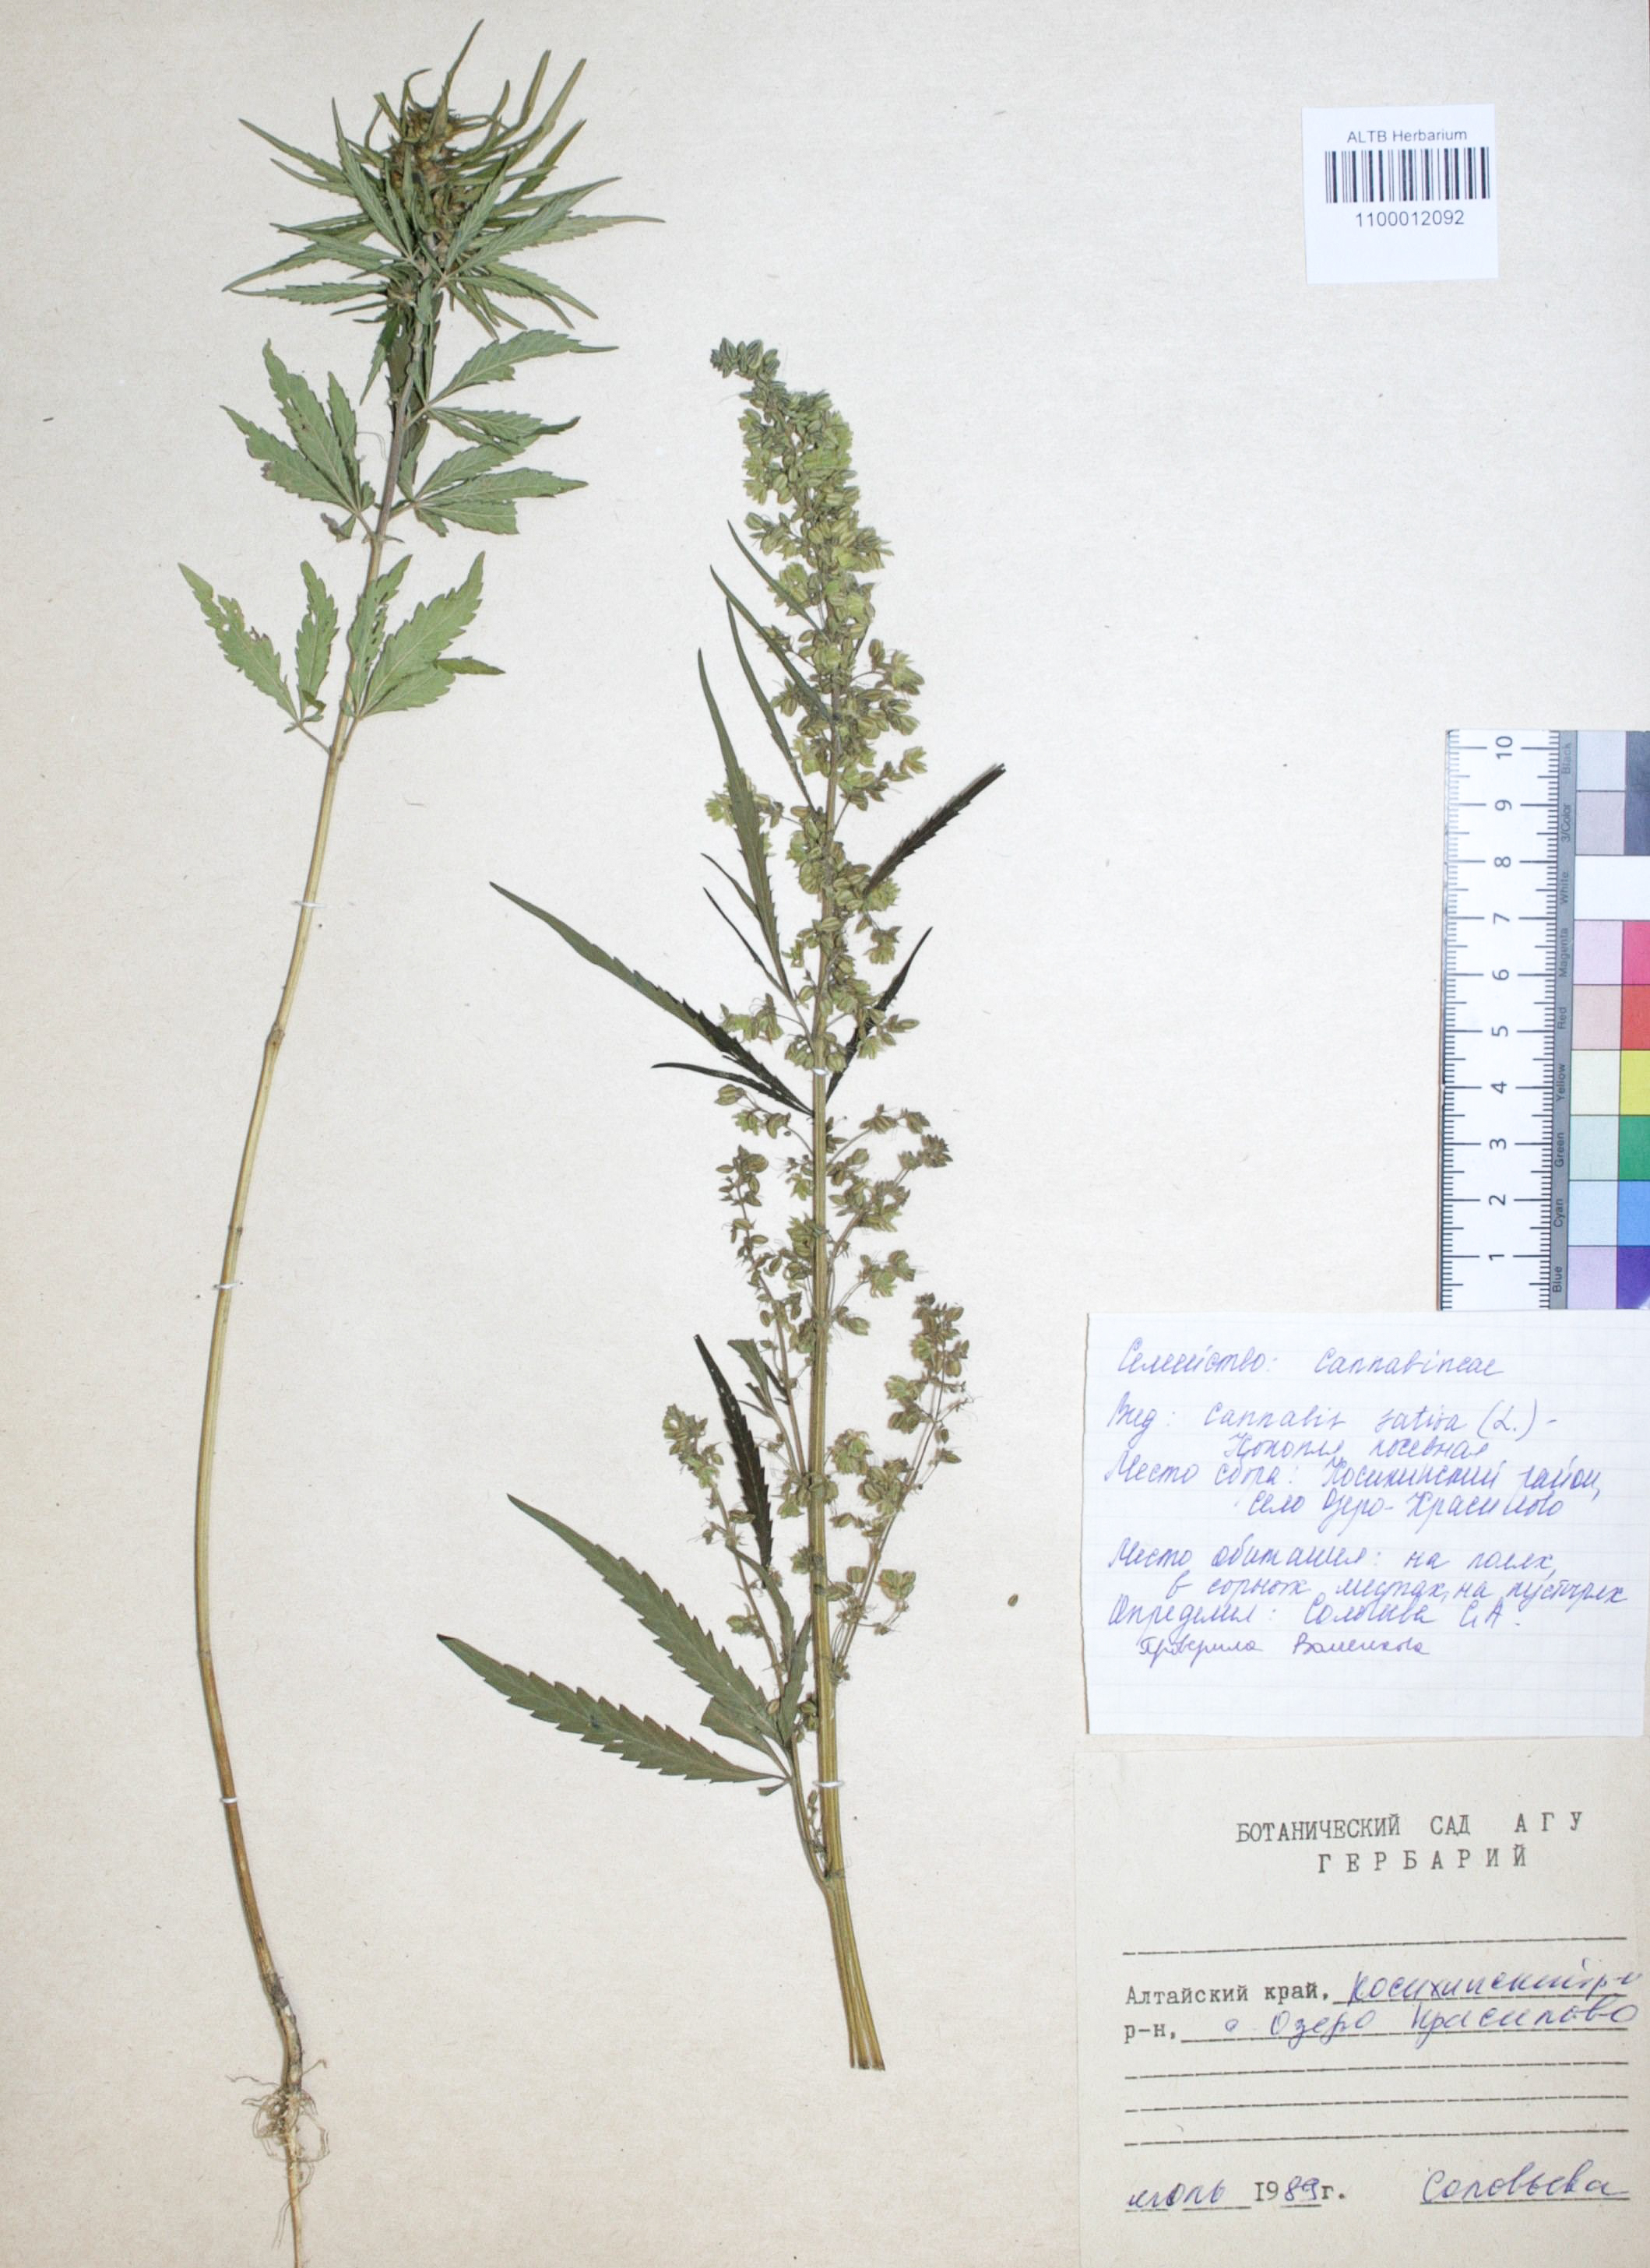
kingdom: Plantae
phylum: Tracheophyta
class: Magnoliopsida
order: Rosales
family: Cannabaceae
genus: Cannabis
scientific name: Cannabis sativa
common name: Hemp
